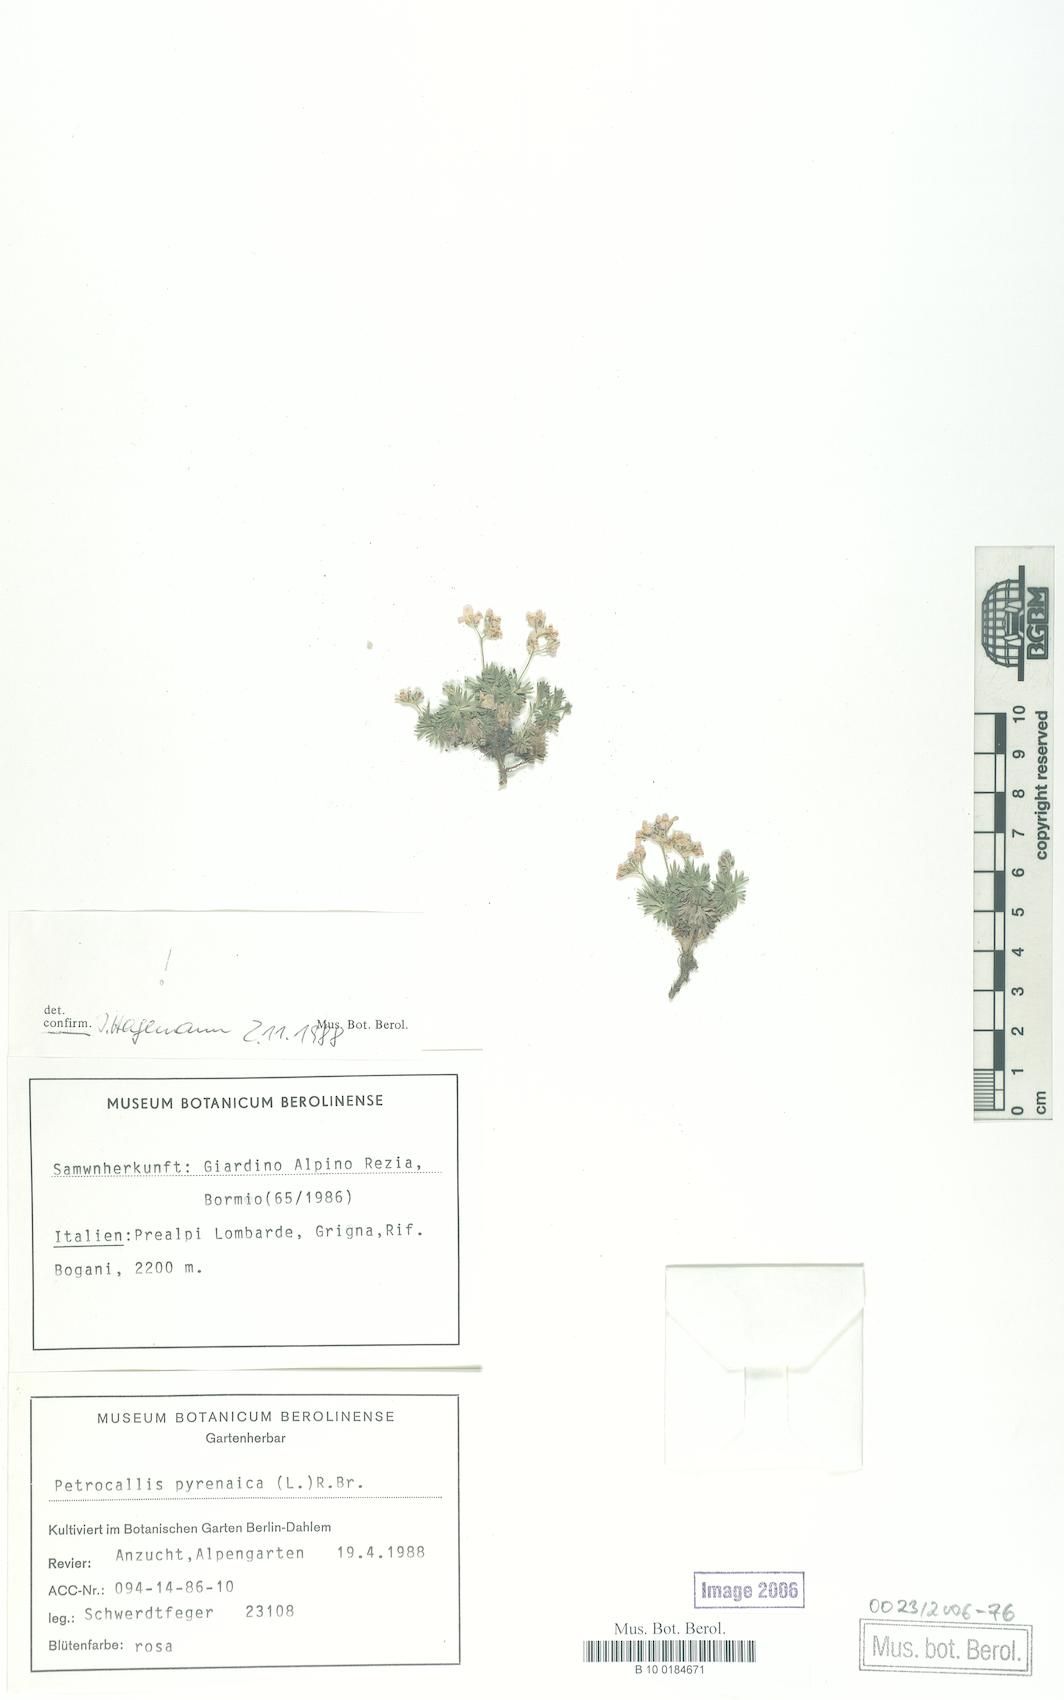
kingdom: Plantae
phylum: Tracheophyta
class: Magnoliopsida
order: Brassicales
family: Brassicaceae
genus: Petrocallis
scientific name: Petrocallis pyrenaica
